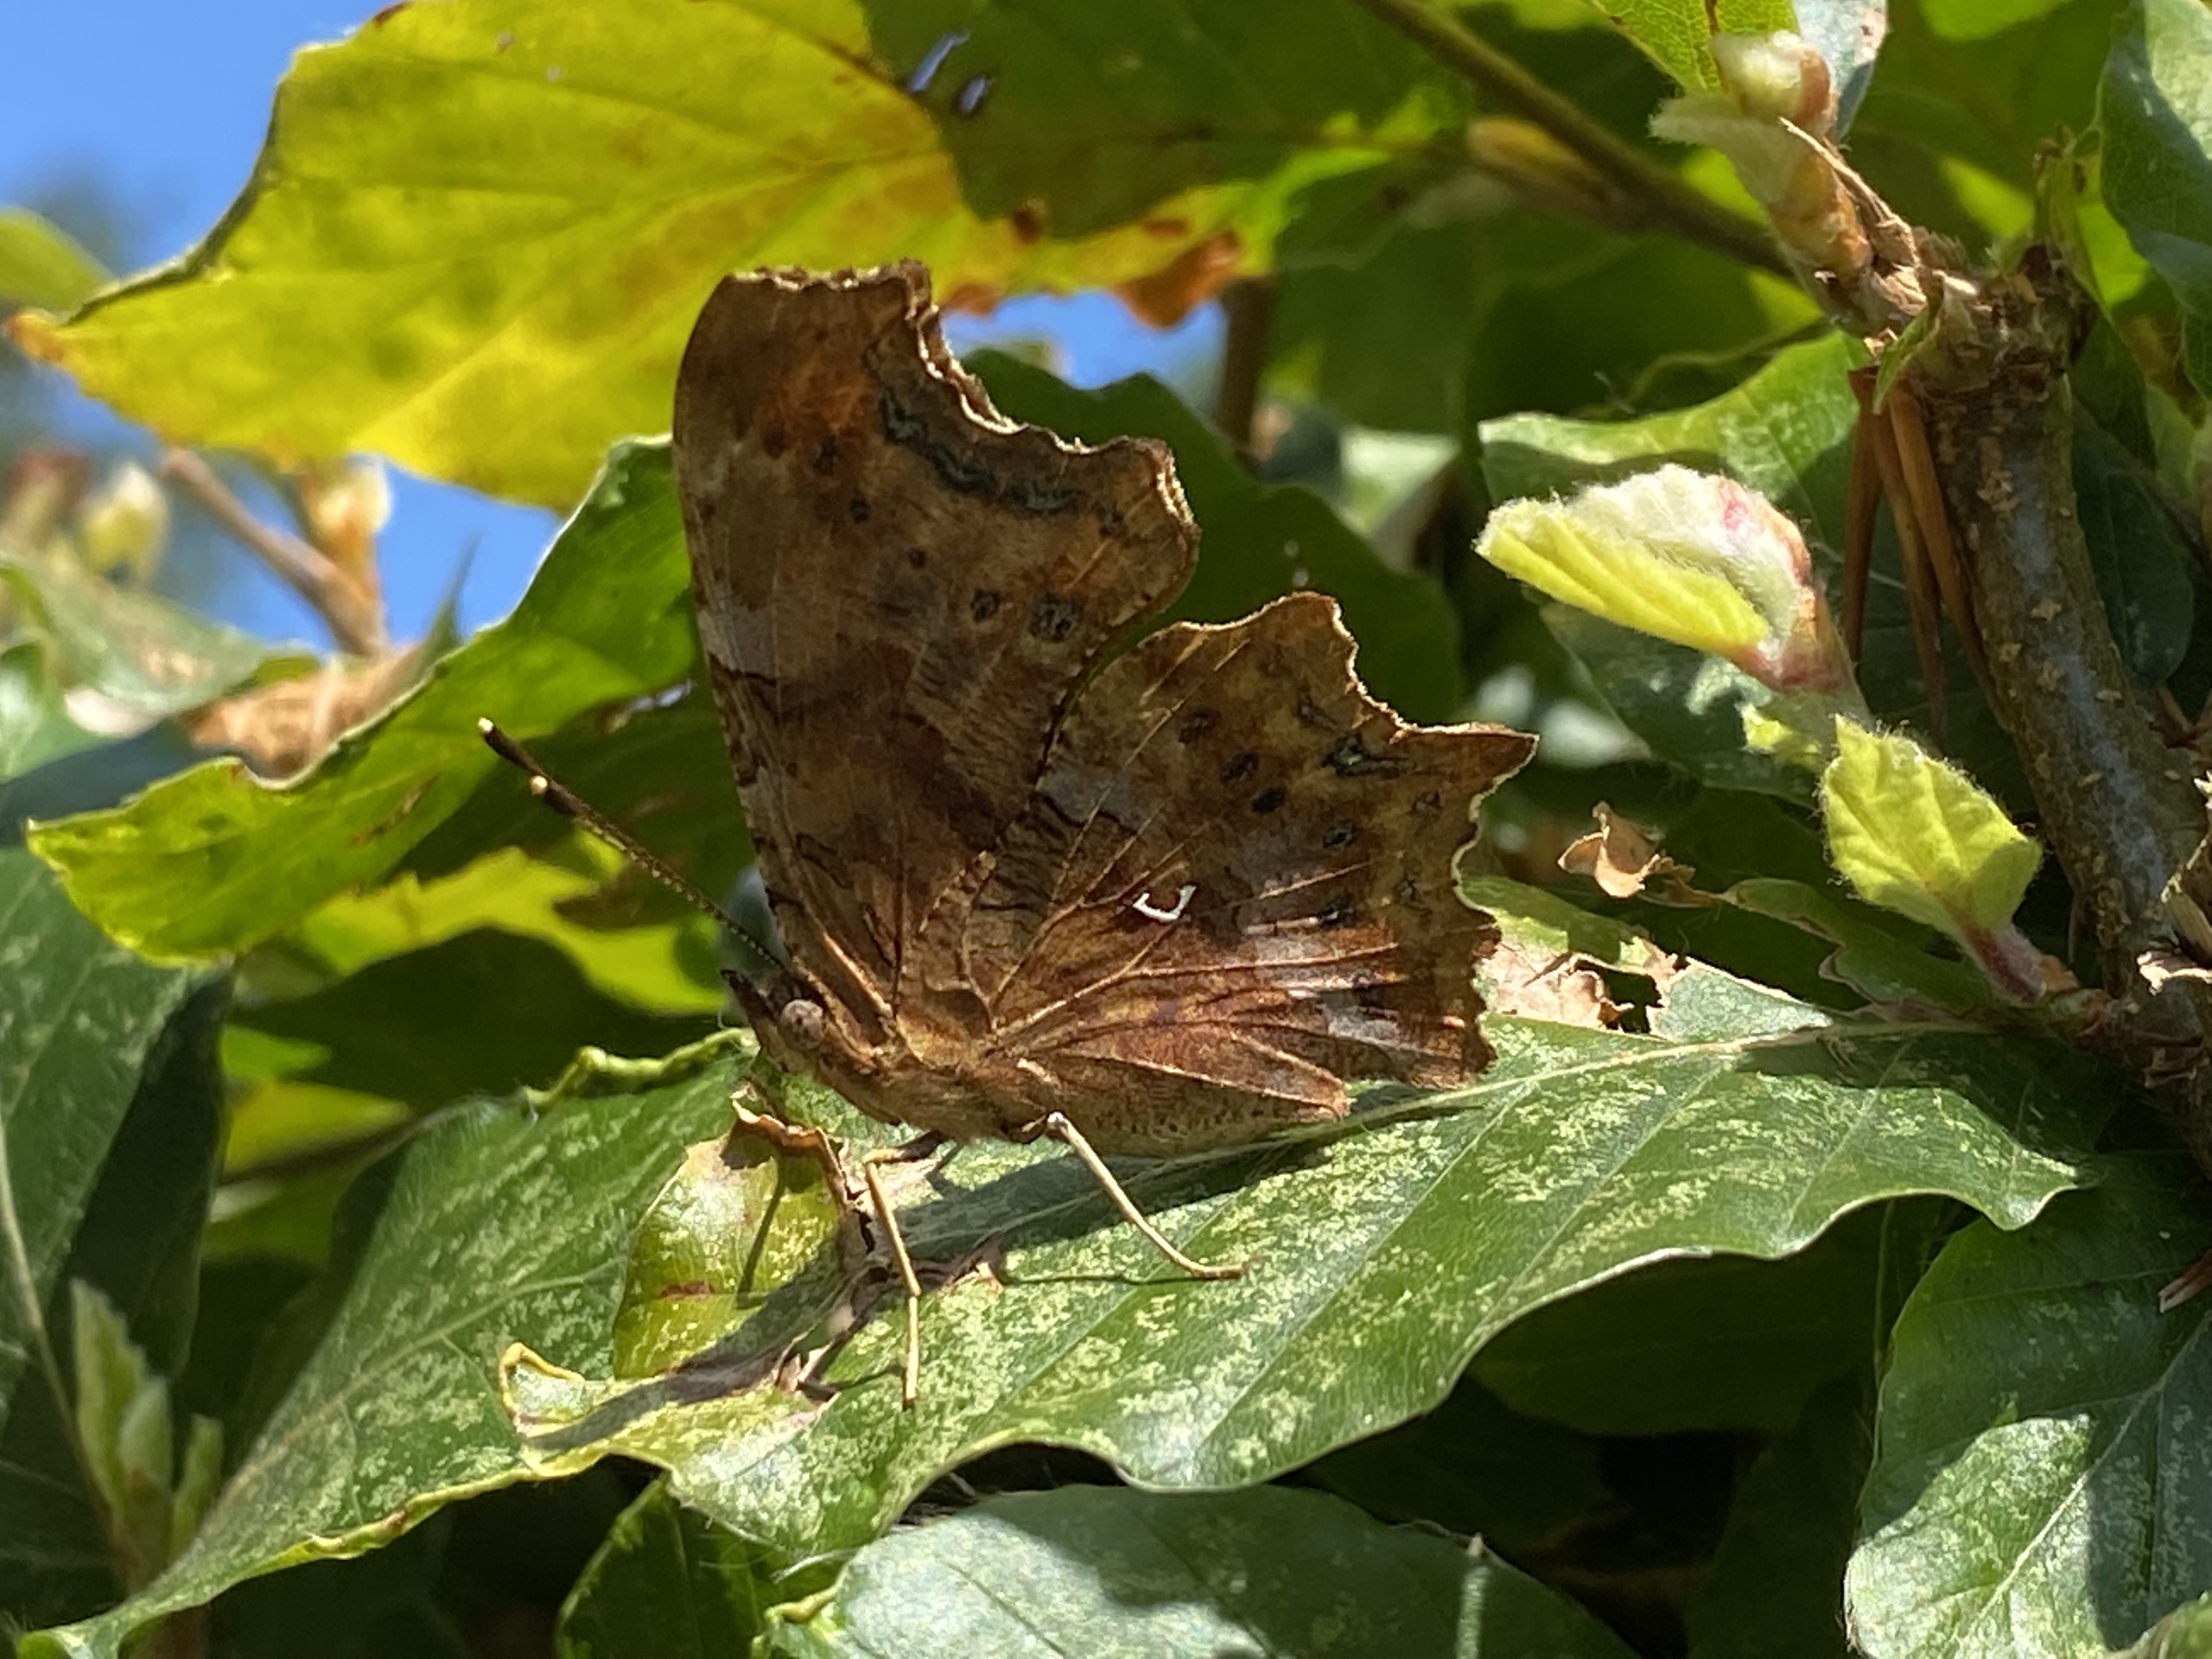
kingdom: Animalia
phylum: Arthropoda
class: Insecta
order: Lepidoptera
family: Nymphalidae
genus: Polygonia
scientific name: Polygonia c-album
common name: Det hvide C
